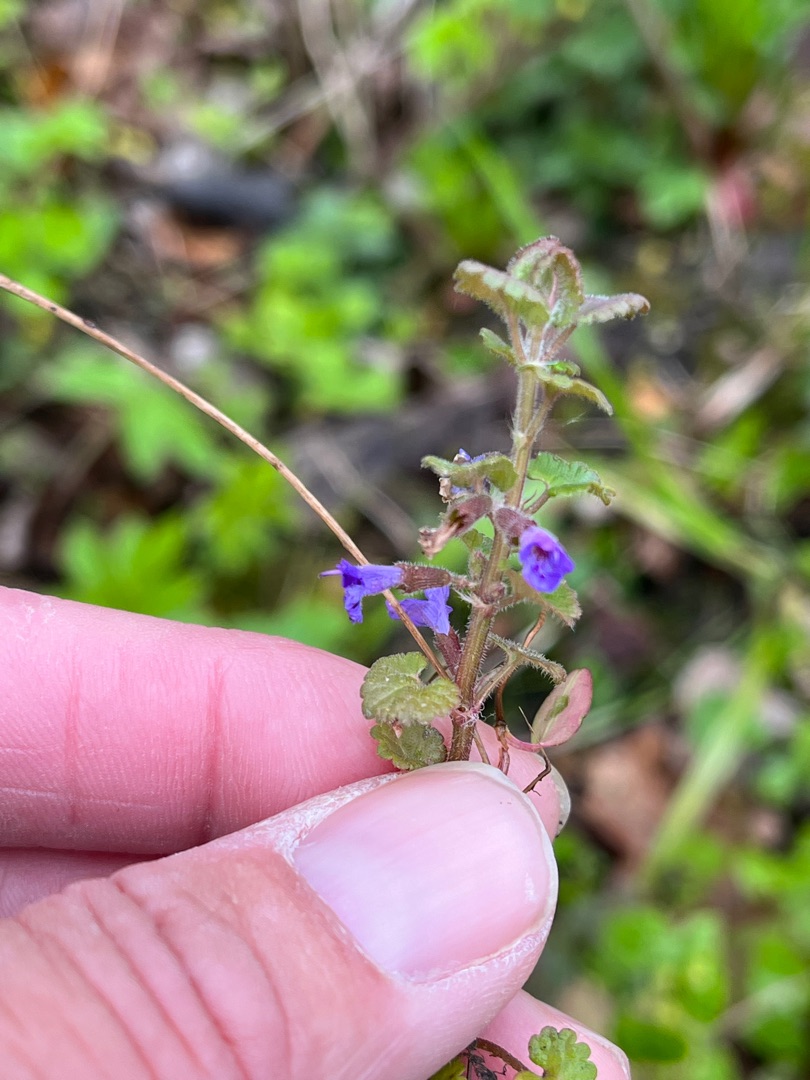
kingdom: Plantae
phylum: Tracheophyta
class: Magnoliopsida
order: Lamiales
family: Lamiaceae
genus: Glechoma
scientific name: Glechoma hederacea
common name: Korsknap
